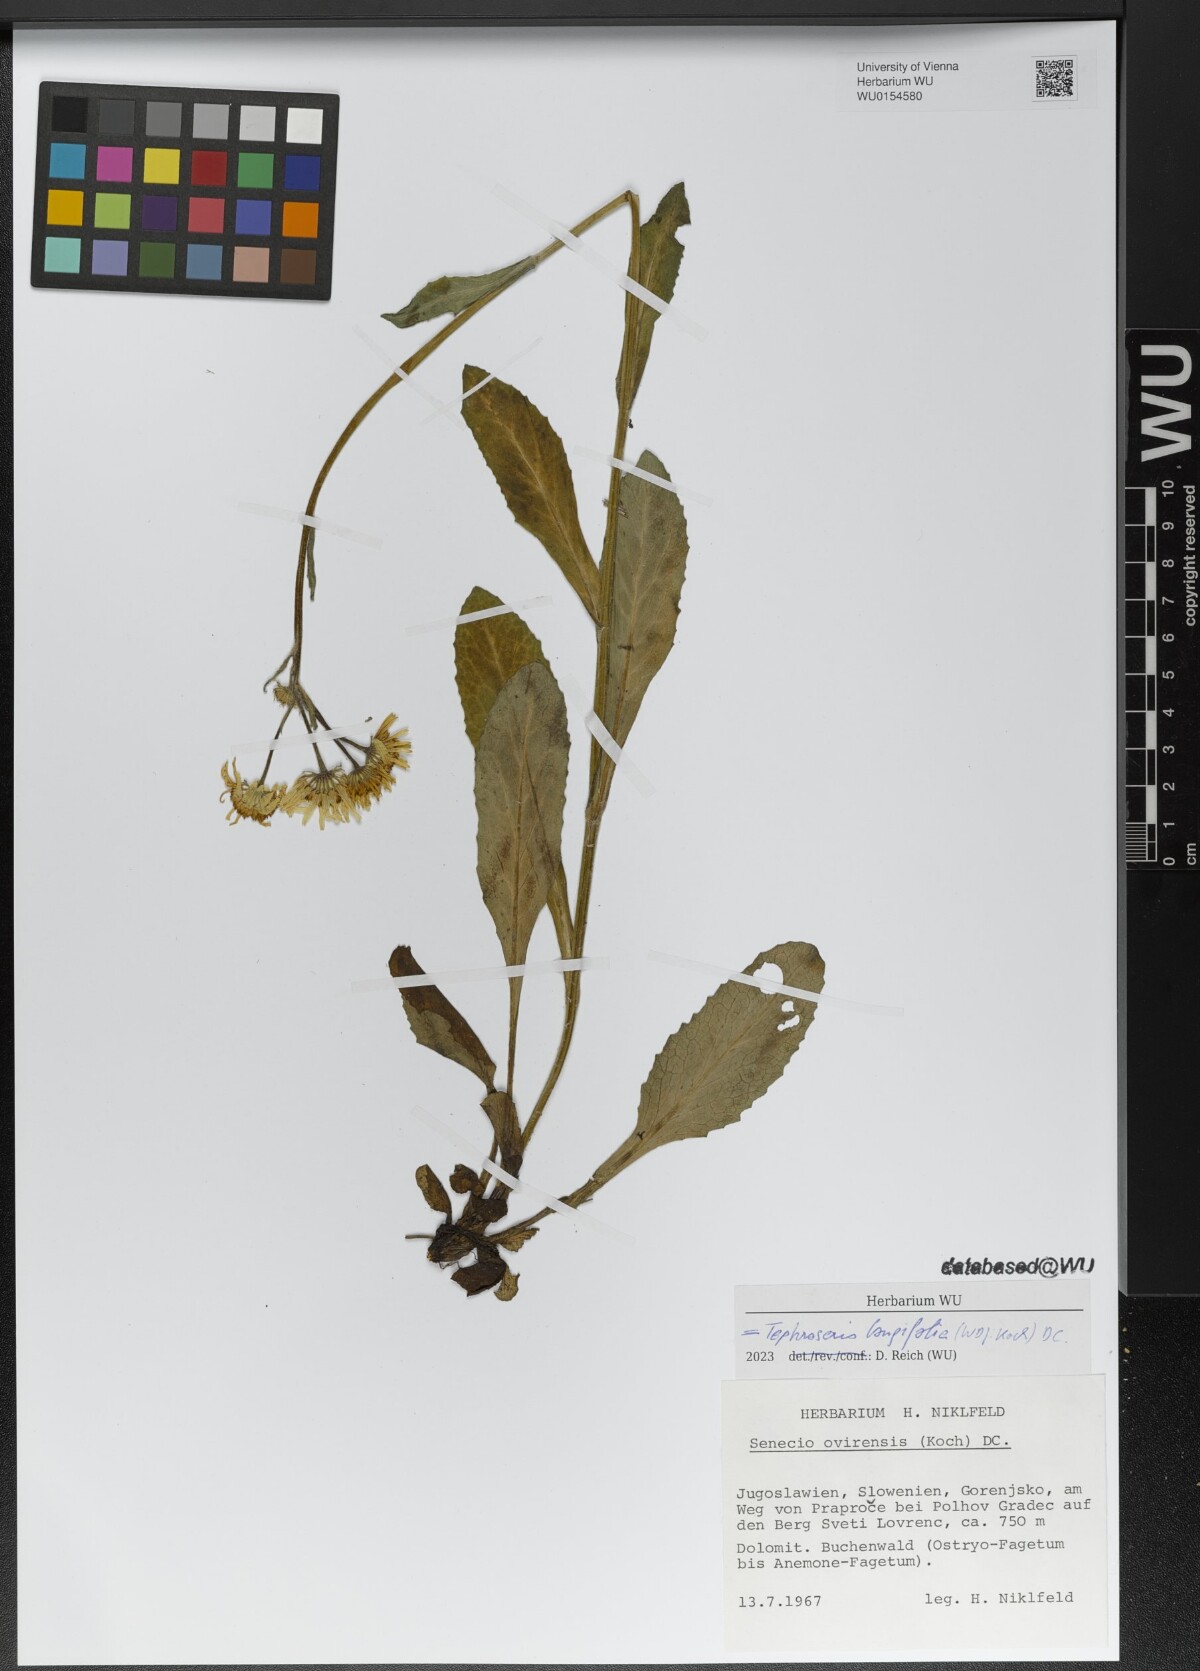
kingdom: Plantae
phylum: Tracheophyta
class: Magnoliopsida
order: Asterales
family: Asteraceae
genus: Tephroseris
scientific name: Tephroseris longifolia
